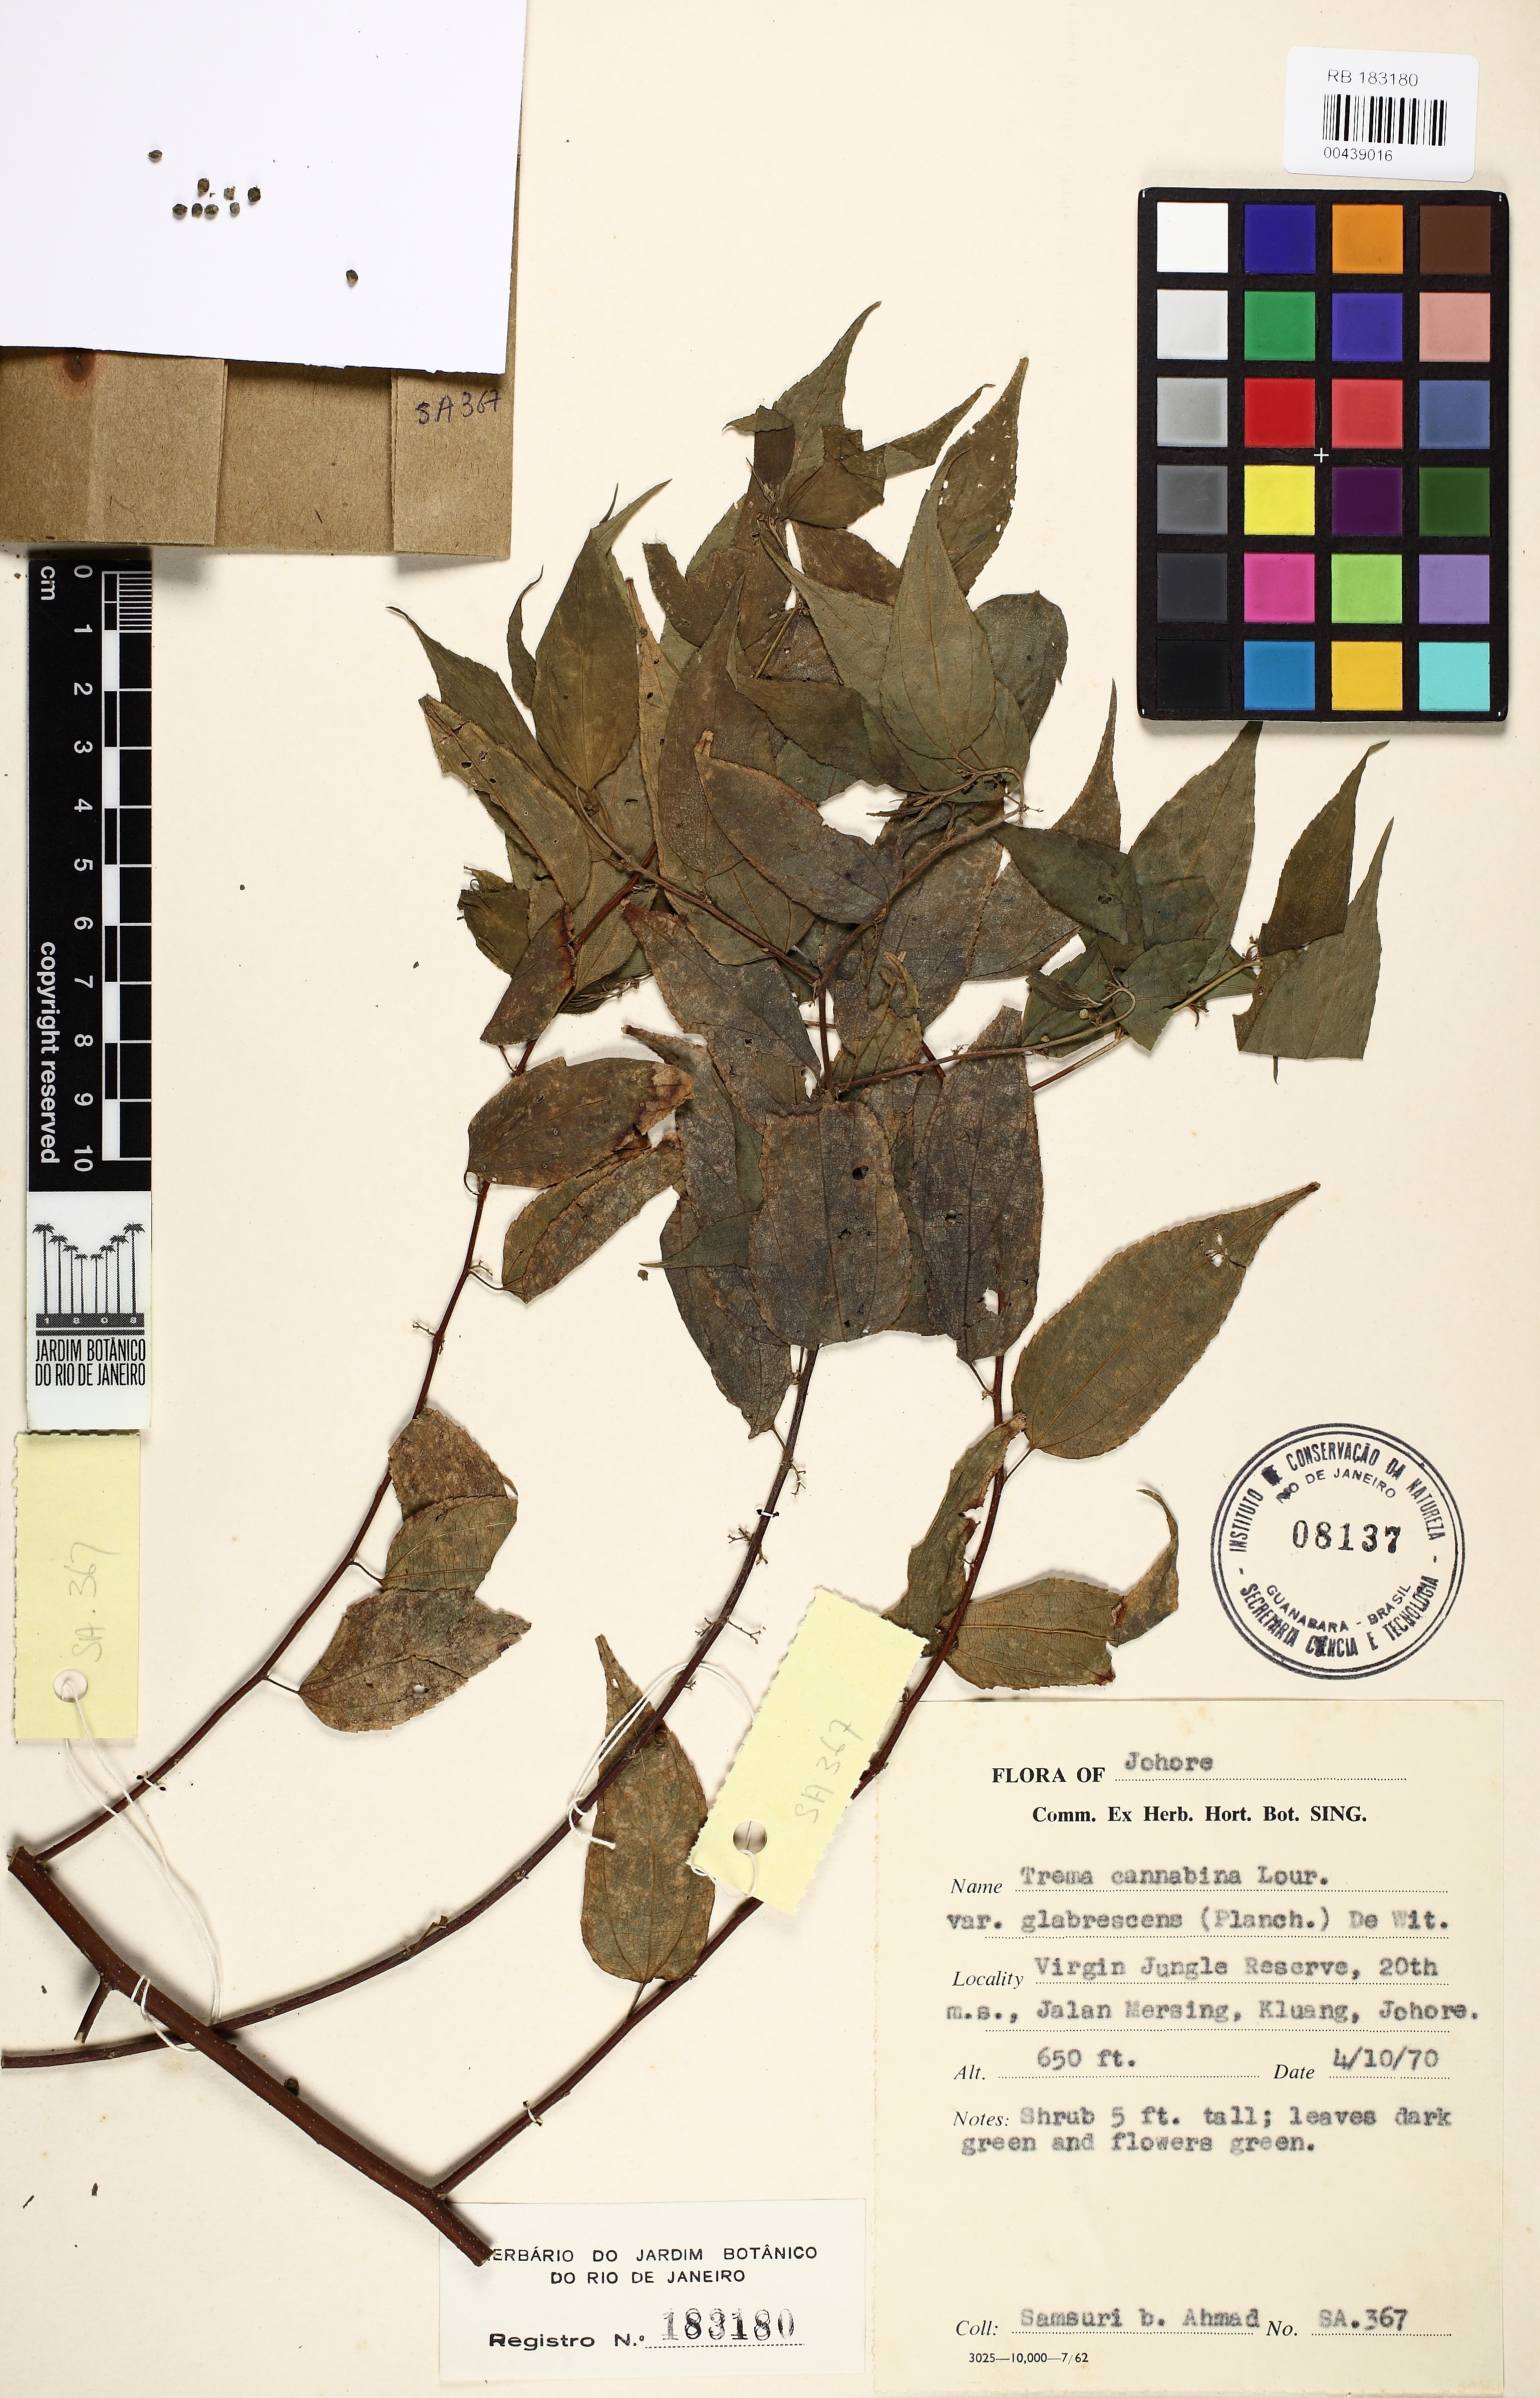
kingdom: Plantae
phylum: Tracheophyta
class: Magnoliopsida
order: Rosales
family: Cannabaceae
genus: Trema
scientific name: Trema cannabina
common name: Poison-peach
